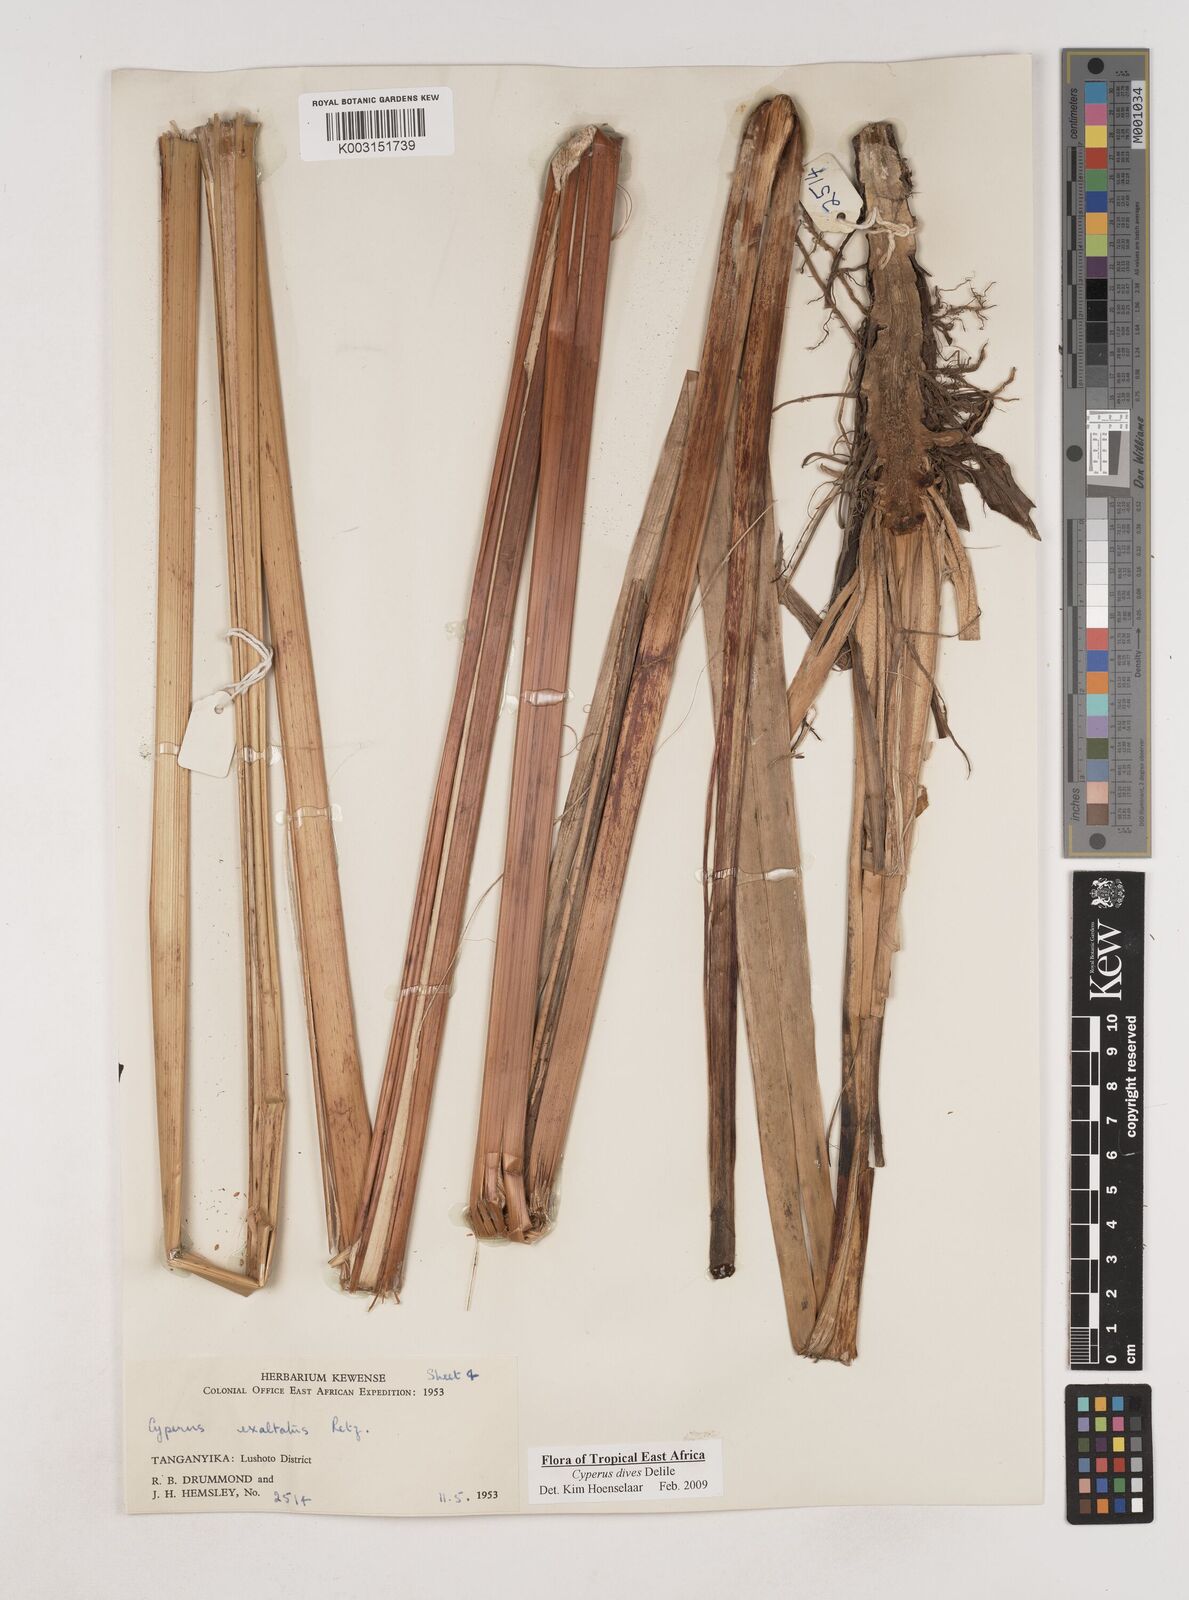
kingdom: Plantae
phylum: Tracheophyta
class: Liliopsida
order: Poales
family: Cyperaceae
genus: Cyperus
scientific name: Cyperus dives
